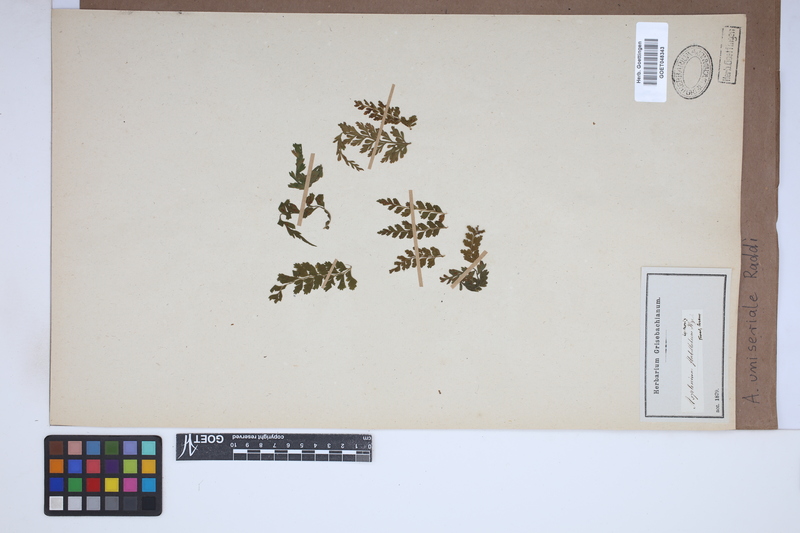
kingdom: Plantae
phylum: Tracheophyta
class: Polypodiopsida
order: Polypodiales
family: Aspleniaceae
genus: Asplenium
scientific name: Asplenium uniseriale
